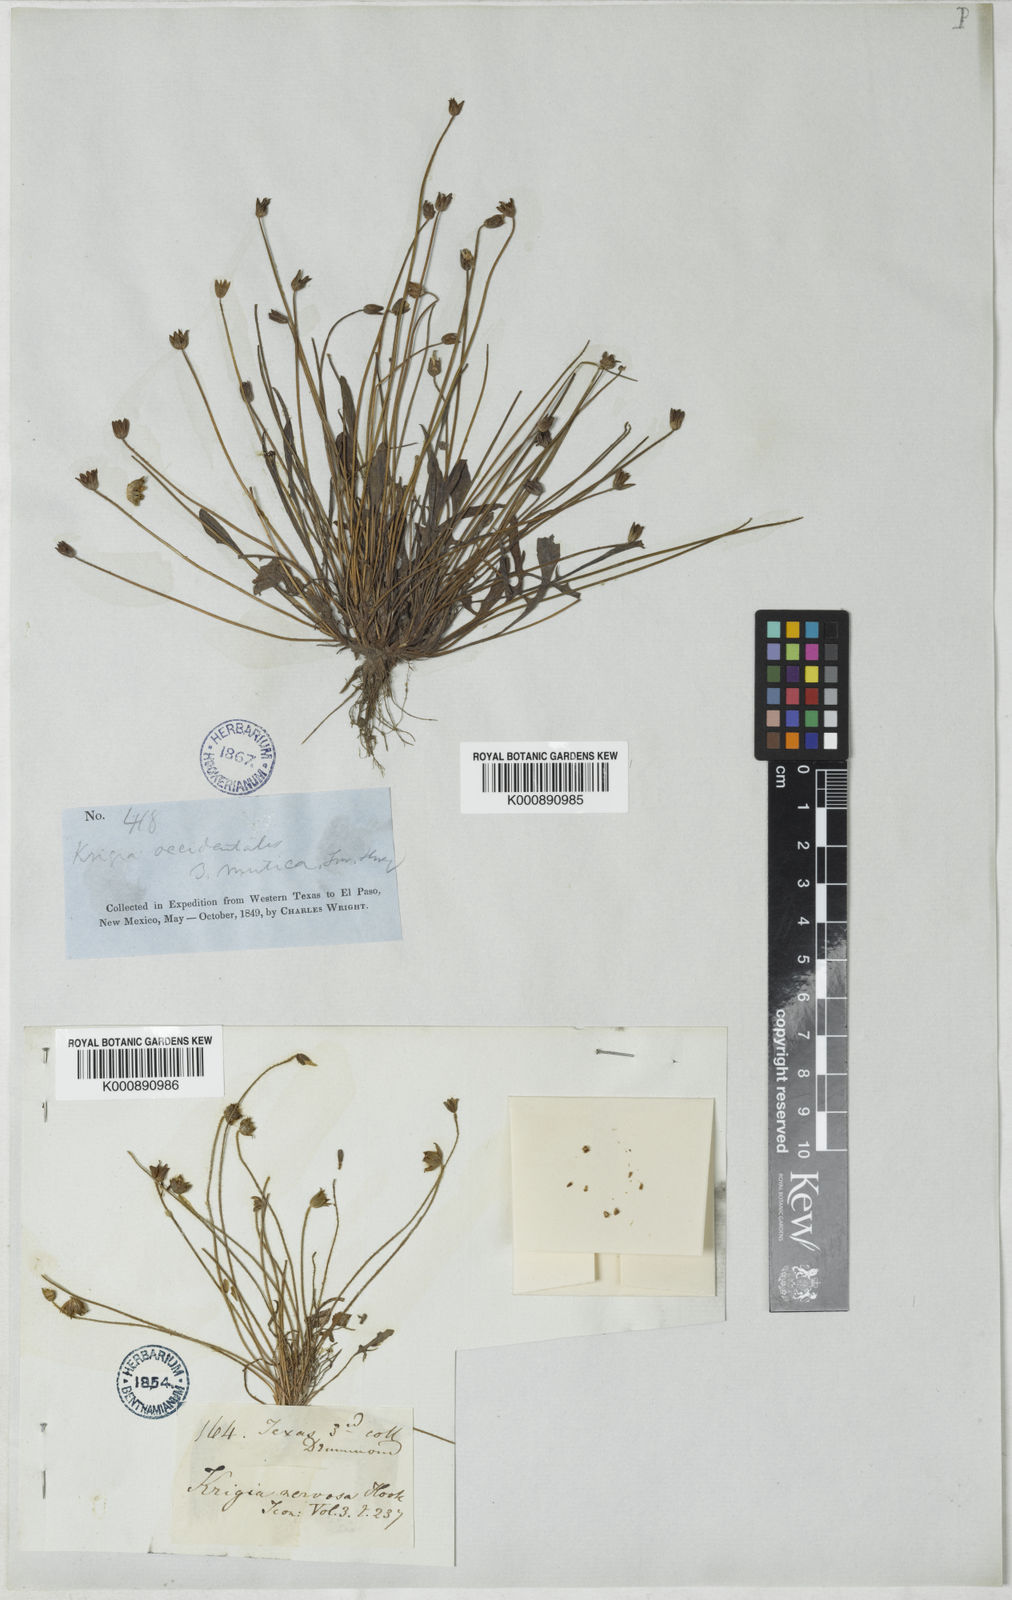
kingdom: Plantae
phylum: Tracheophyta
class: Magnoliopsida
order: Asterales
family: Asteraceae
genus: Krigia
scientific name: Krigia occidentalis
